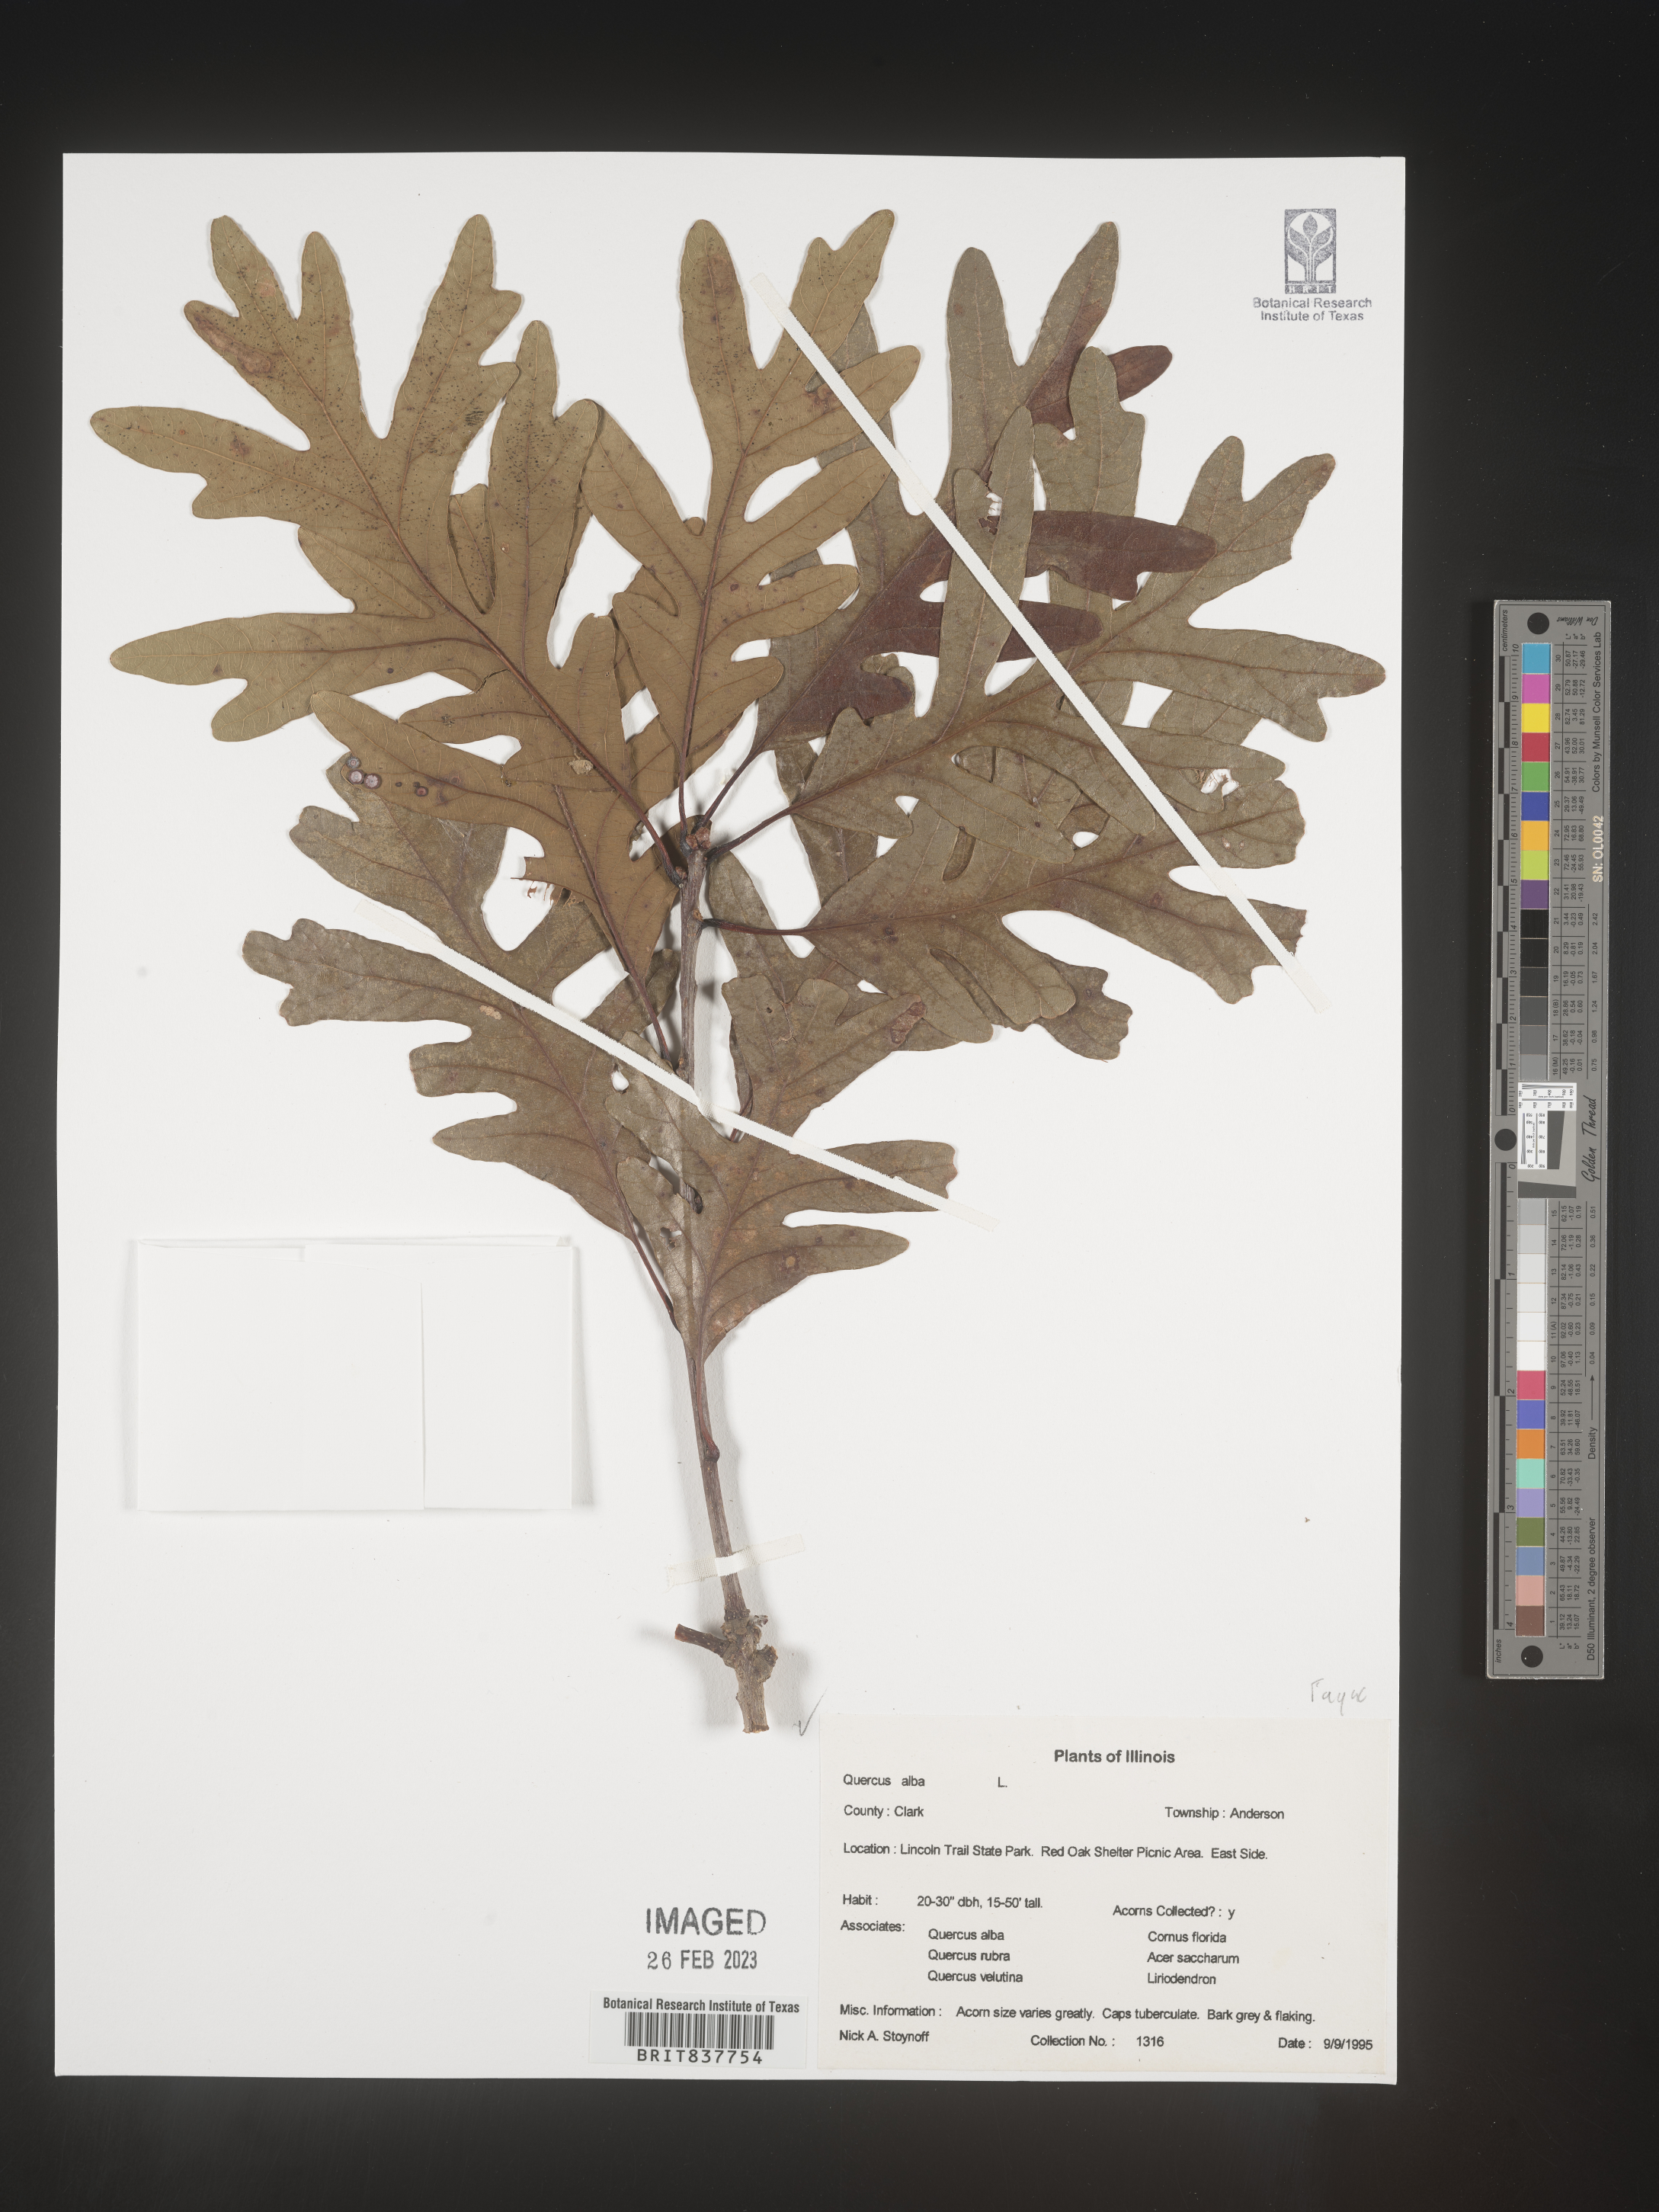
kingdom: Plantae
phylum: Tracheophyta
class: Magnoliopsida
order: Fagales
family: Fagaceae
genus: Quercus
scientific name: Quercus alba
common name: White oak
